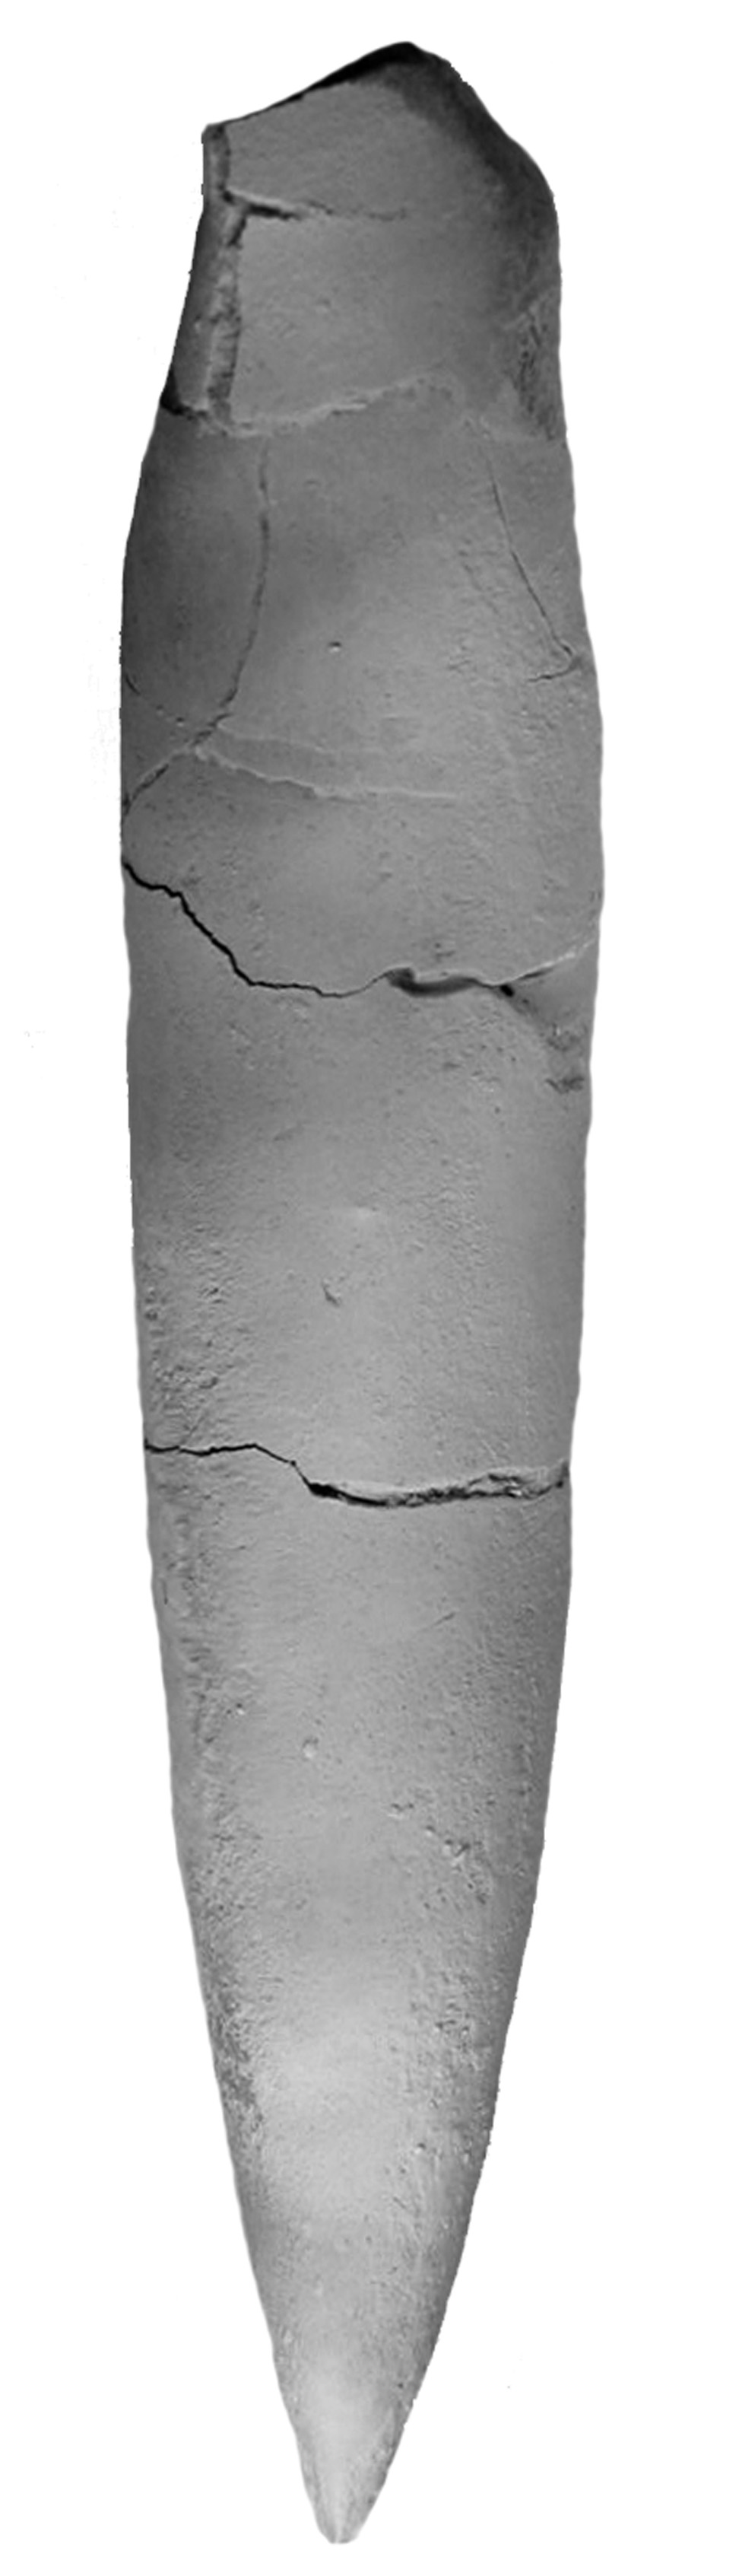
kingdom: Animalia
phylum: Mollusca
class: Cephalopoda
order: Belemnitida
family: Megateuthididae
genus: Megateuthis
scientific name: Megateuthis
